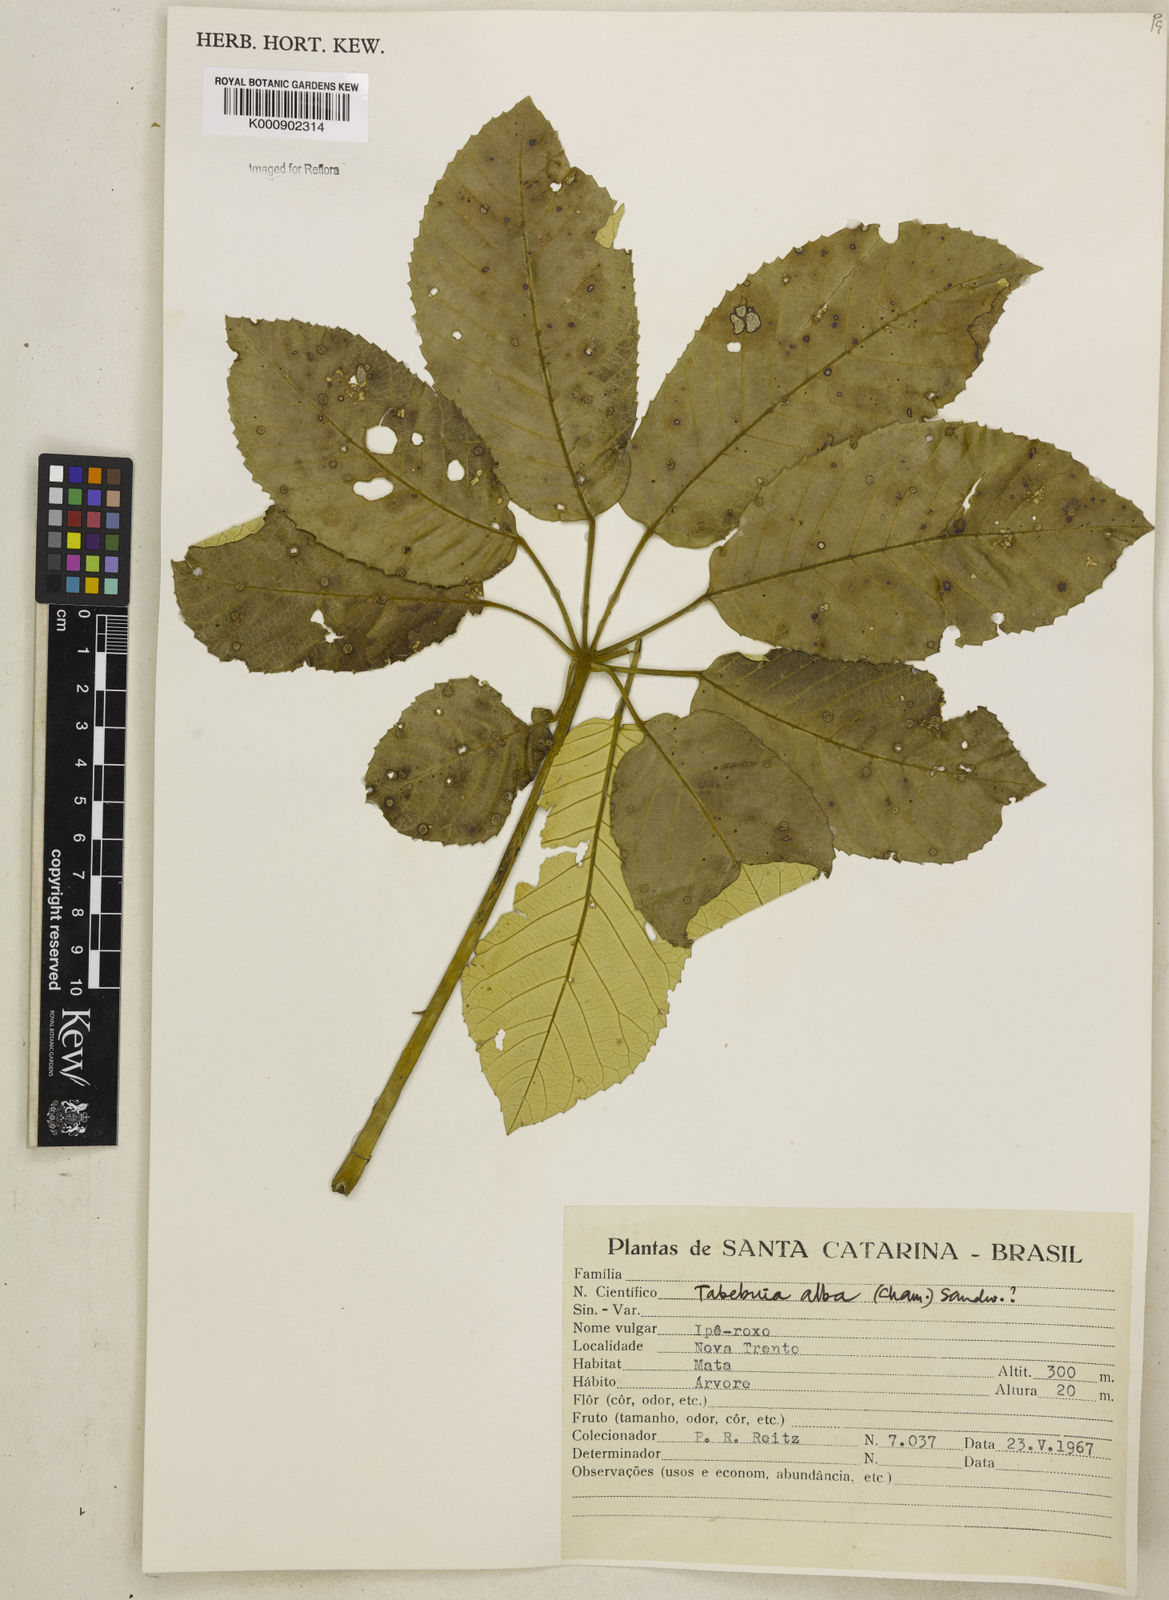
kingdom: Plantae
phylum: Tracheophyta
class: Magnoliopsida
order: Lamiales
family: Bignoniaceae
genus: Handroanthus
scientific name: Handroanthus albus
